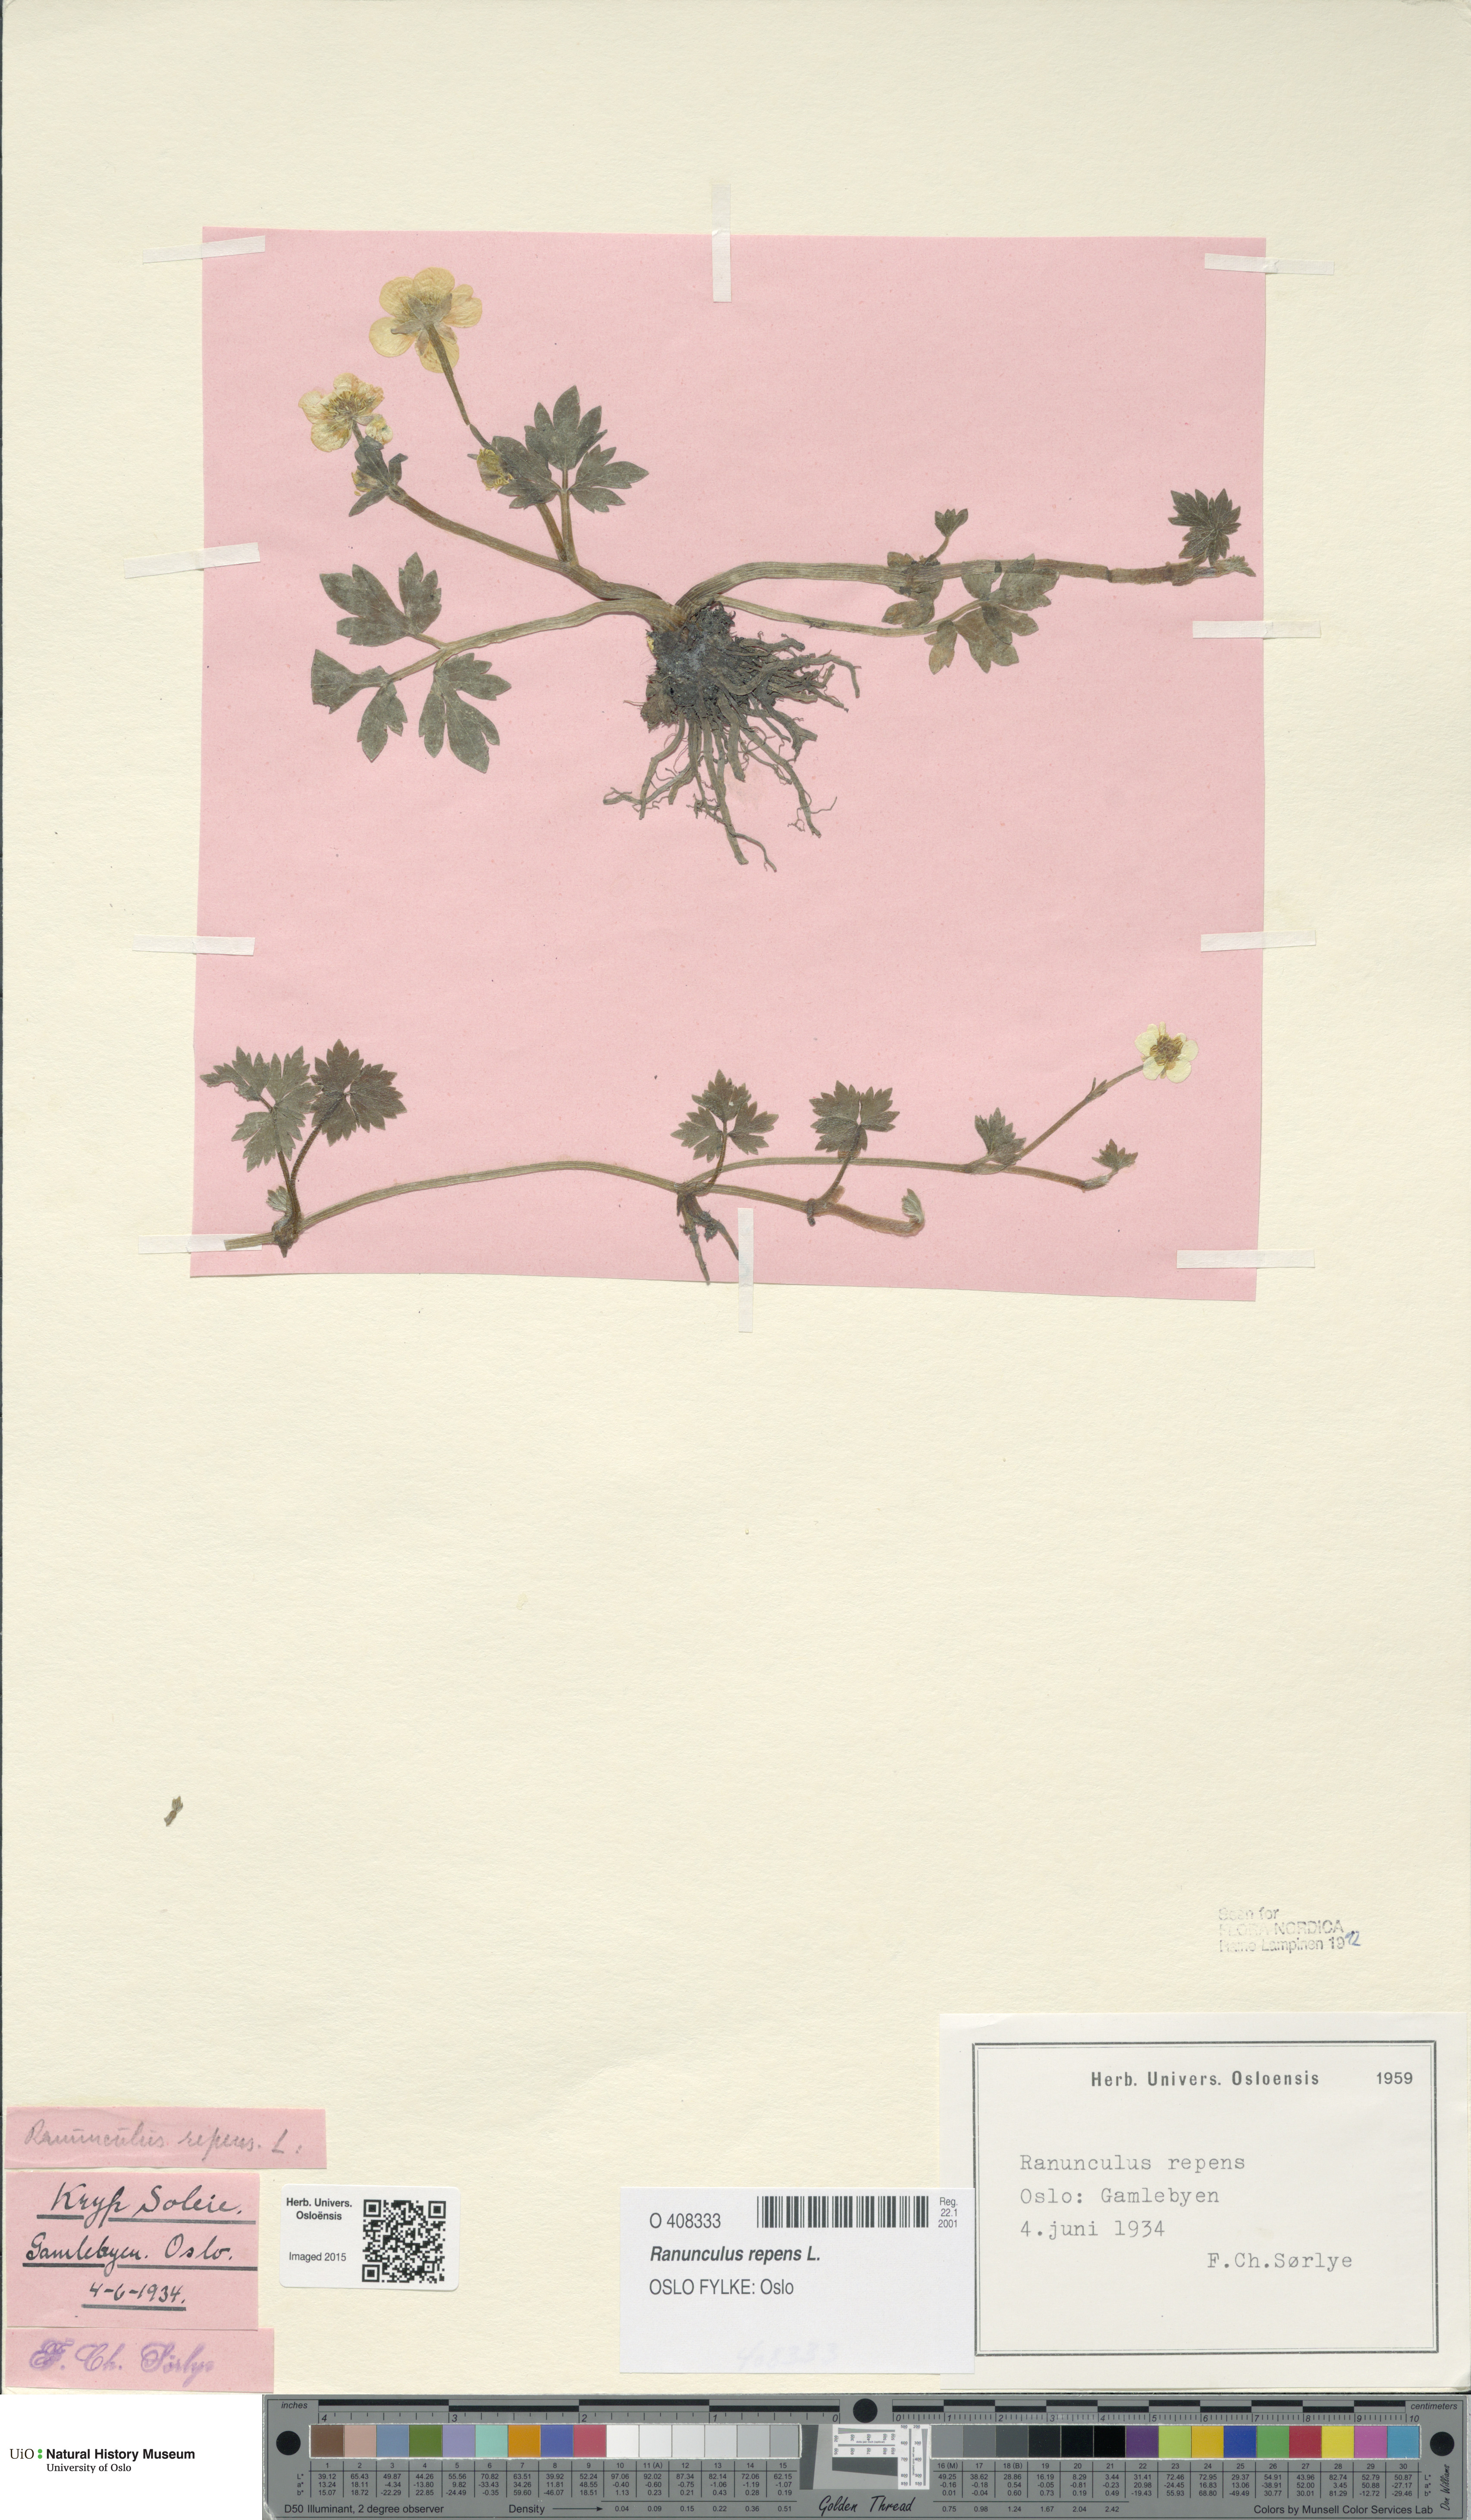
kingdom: Plantae
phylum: Tracheophyta
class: Magnoliopsida
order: Ranunculales
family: Ranunculaceae
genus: Ranunculus
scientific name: Ranunculus repens
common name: Creeping buttercup
